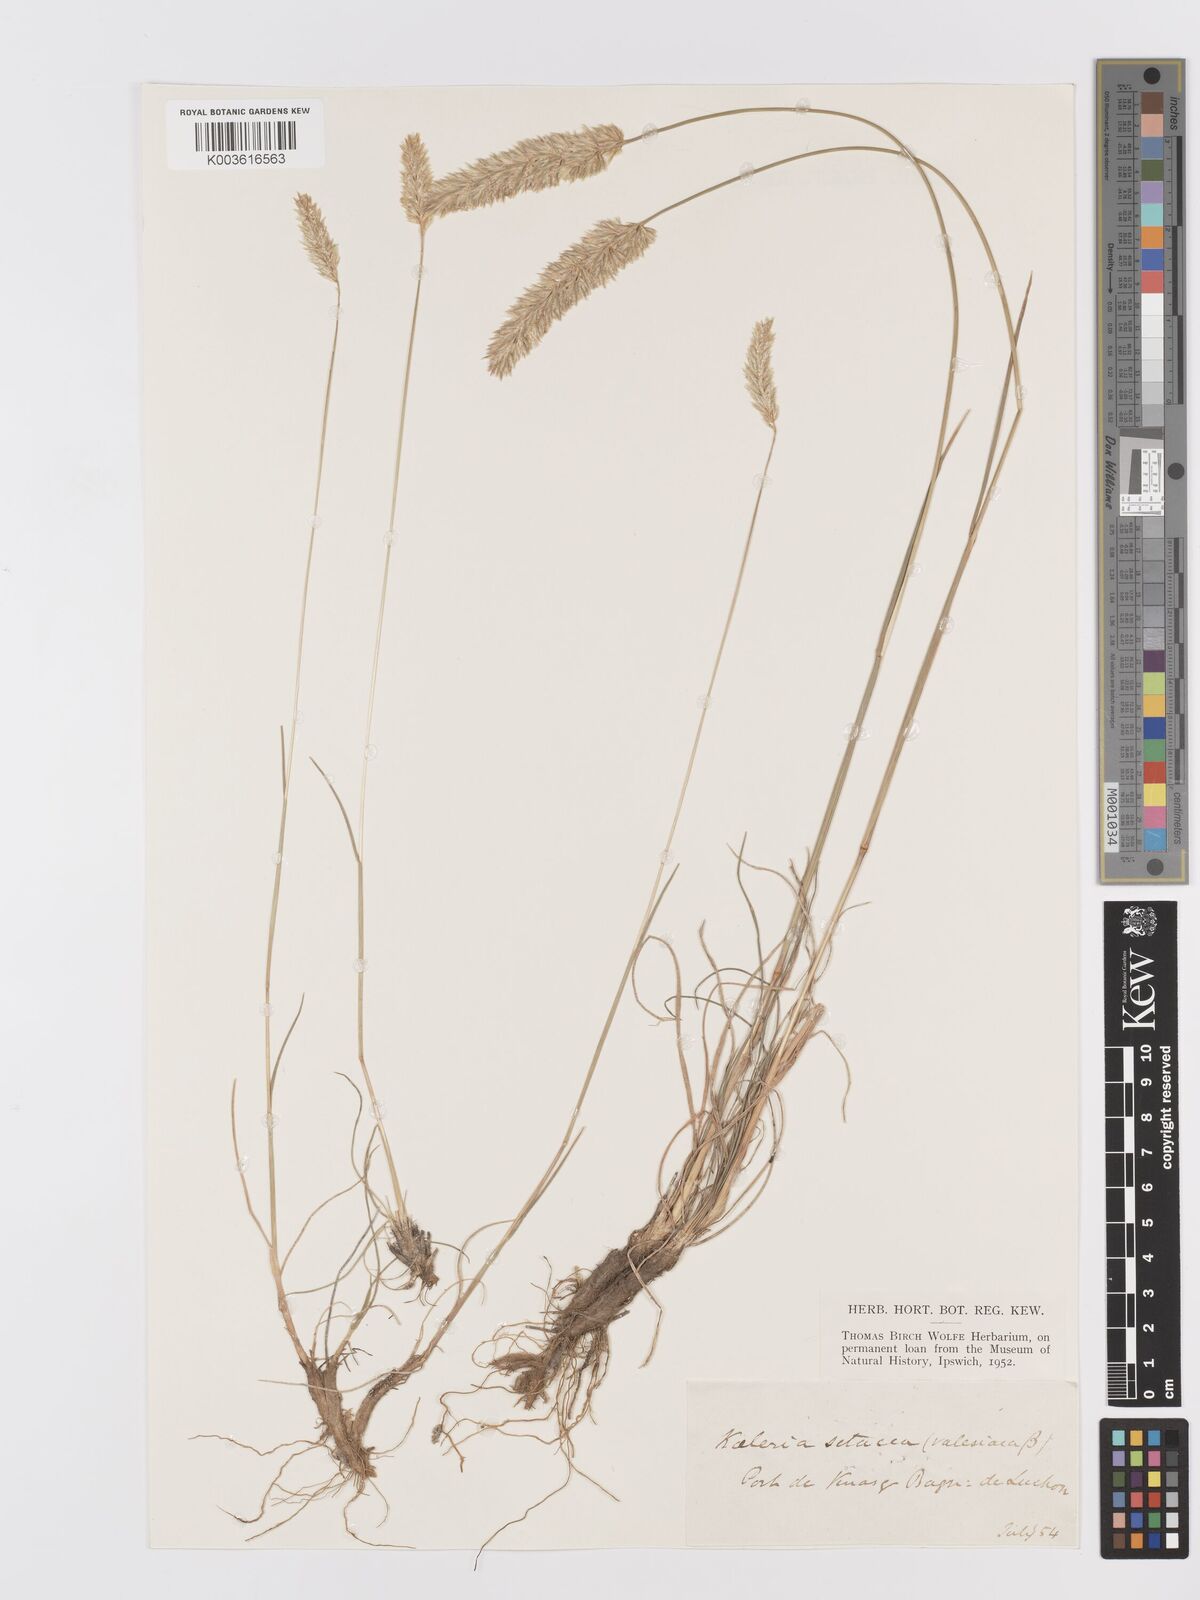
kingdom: Plantae
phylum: Tracheophyta
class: Liliopsida
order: Poales
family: Poaceae
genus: Koeleria
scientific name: Koeleria vallesiana
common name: Somerset hair-grass
